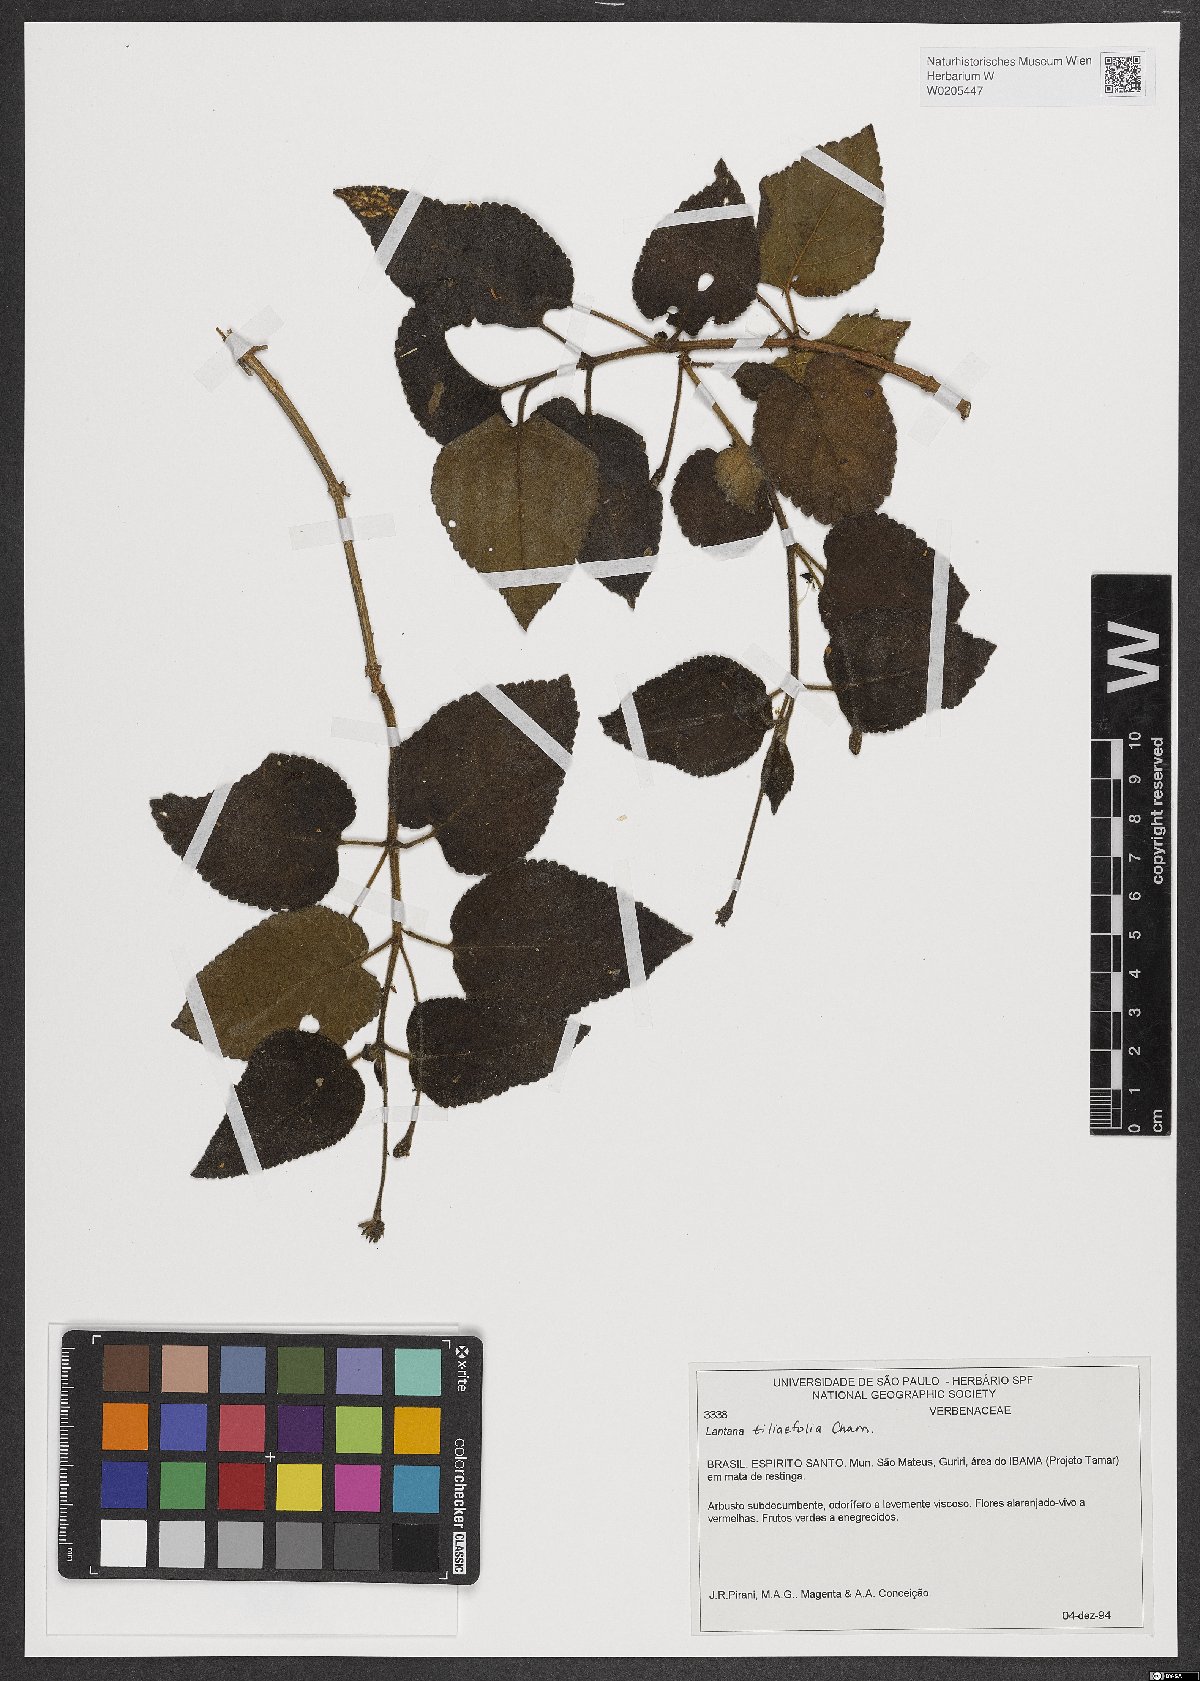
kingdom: Plantae
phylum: Tracheophyta
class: Magnoliopsida
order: Lamiales
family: Verbenaceae
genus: Lantana
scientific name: Lantana horrida
